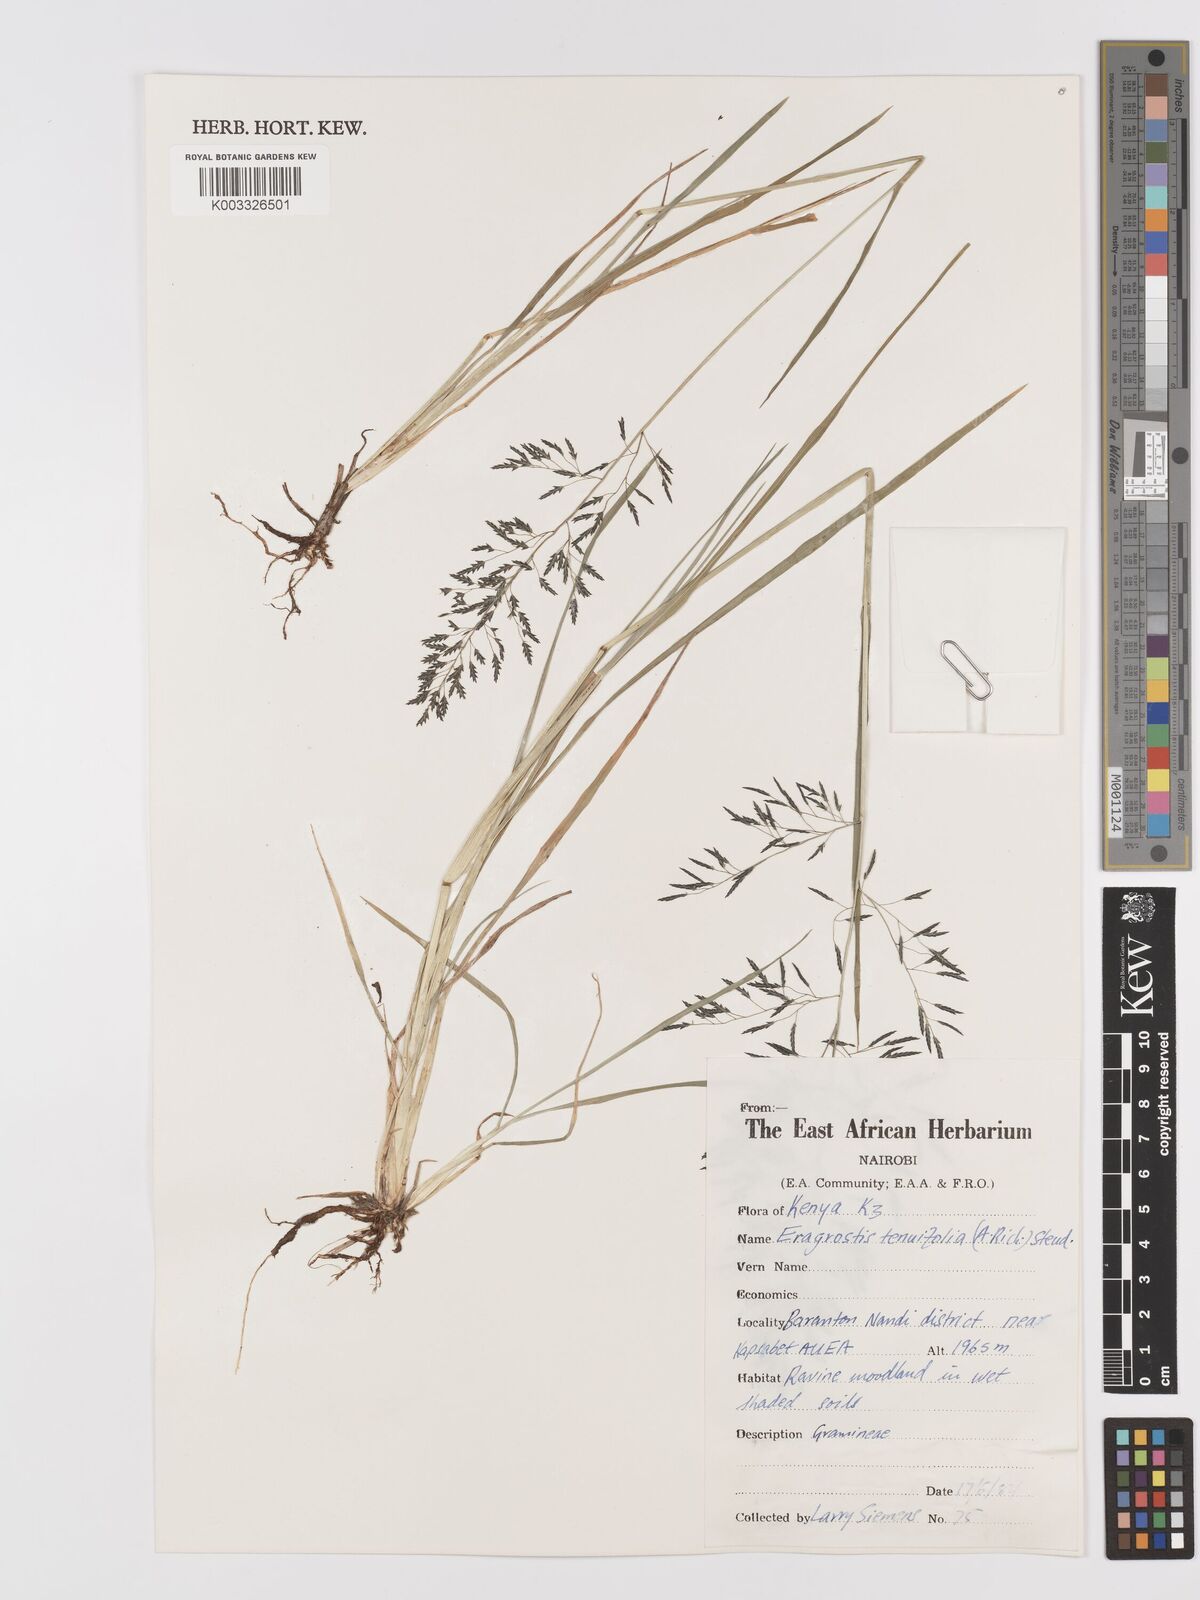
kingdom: Plantae
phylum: Tracheophyta
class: Liliopsida
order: Poales
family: Poaceae
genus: Eragrostis
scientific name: Eragrostis tenuifolia
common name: Elastic grass
